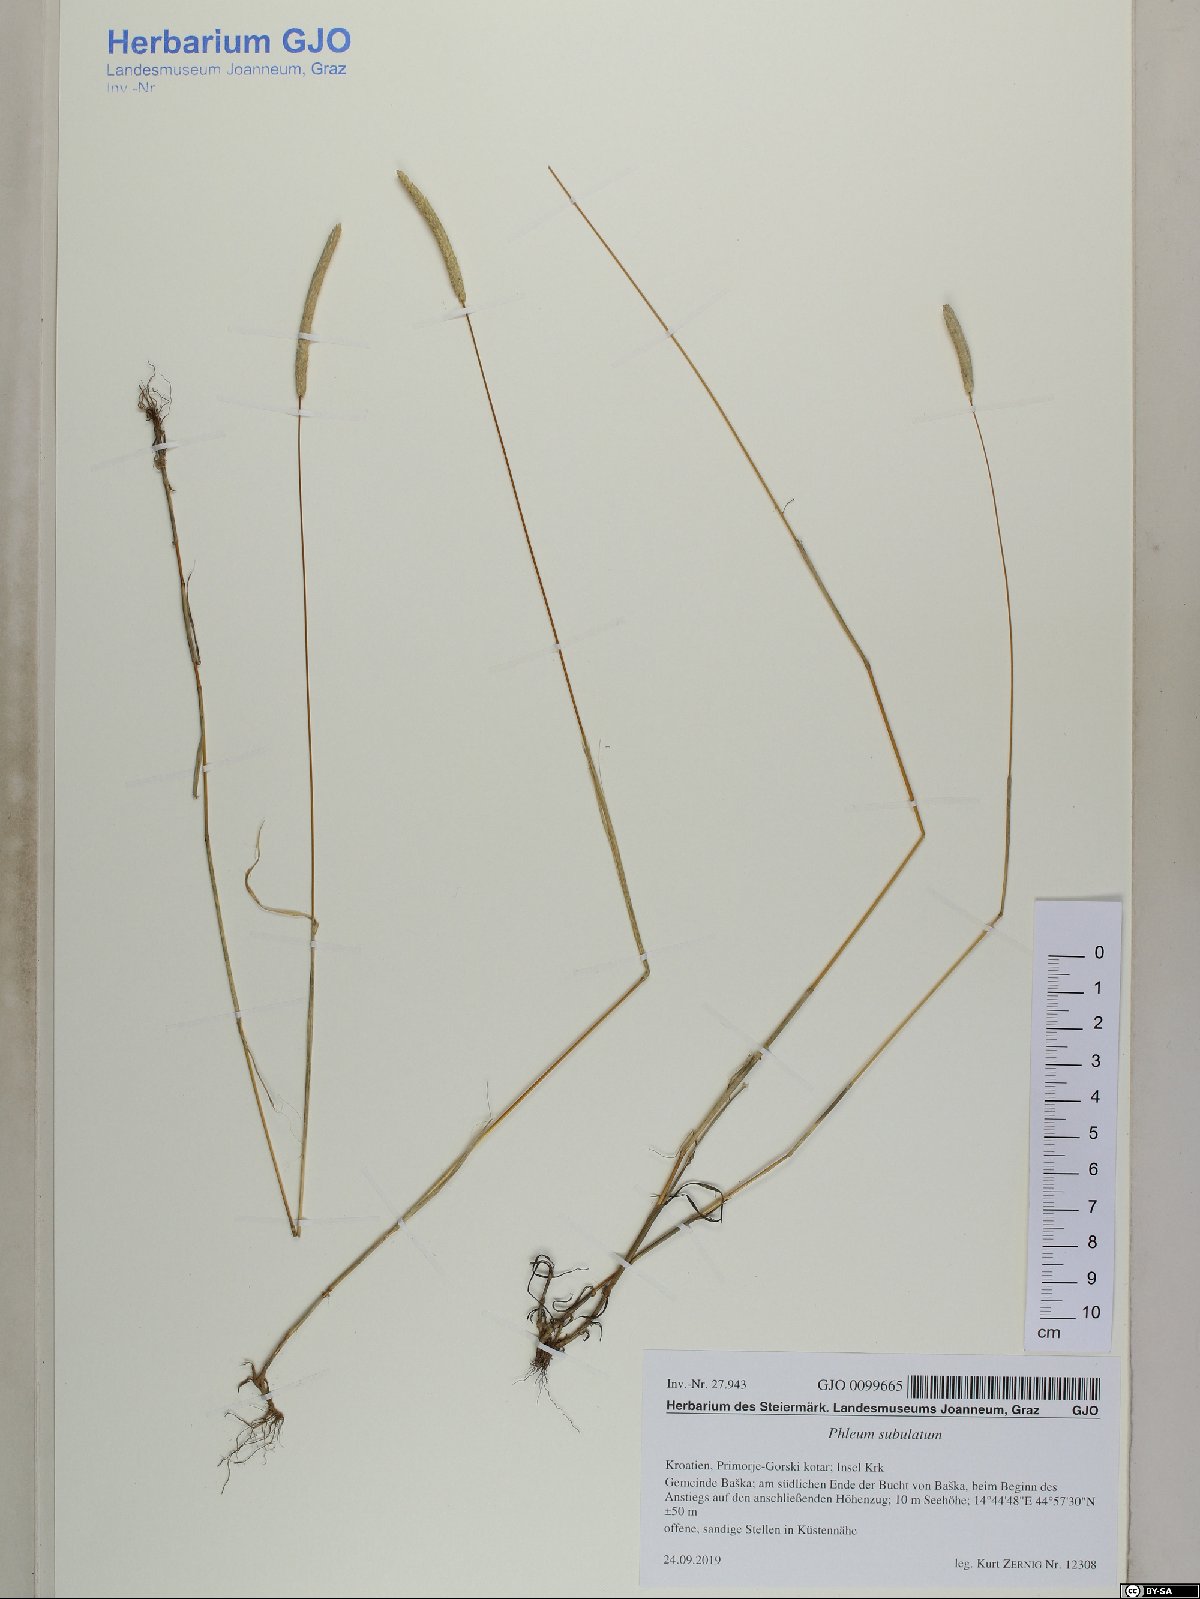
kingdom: Plantae
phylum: Tracheophyta
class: Liliopsida
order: Poales
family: Poaceae
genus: Phleum
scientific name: Phleum subulatum
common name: Italian timothy
